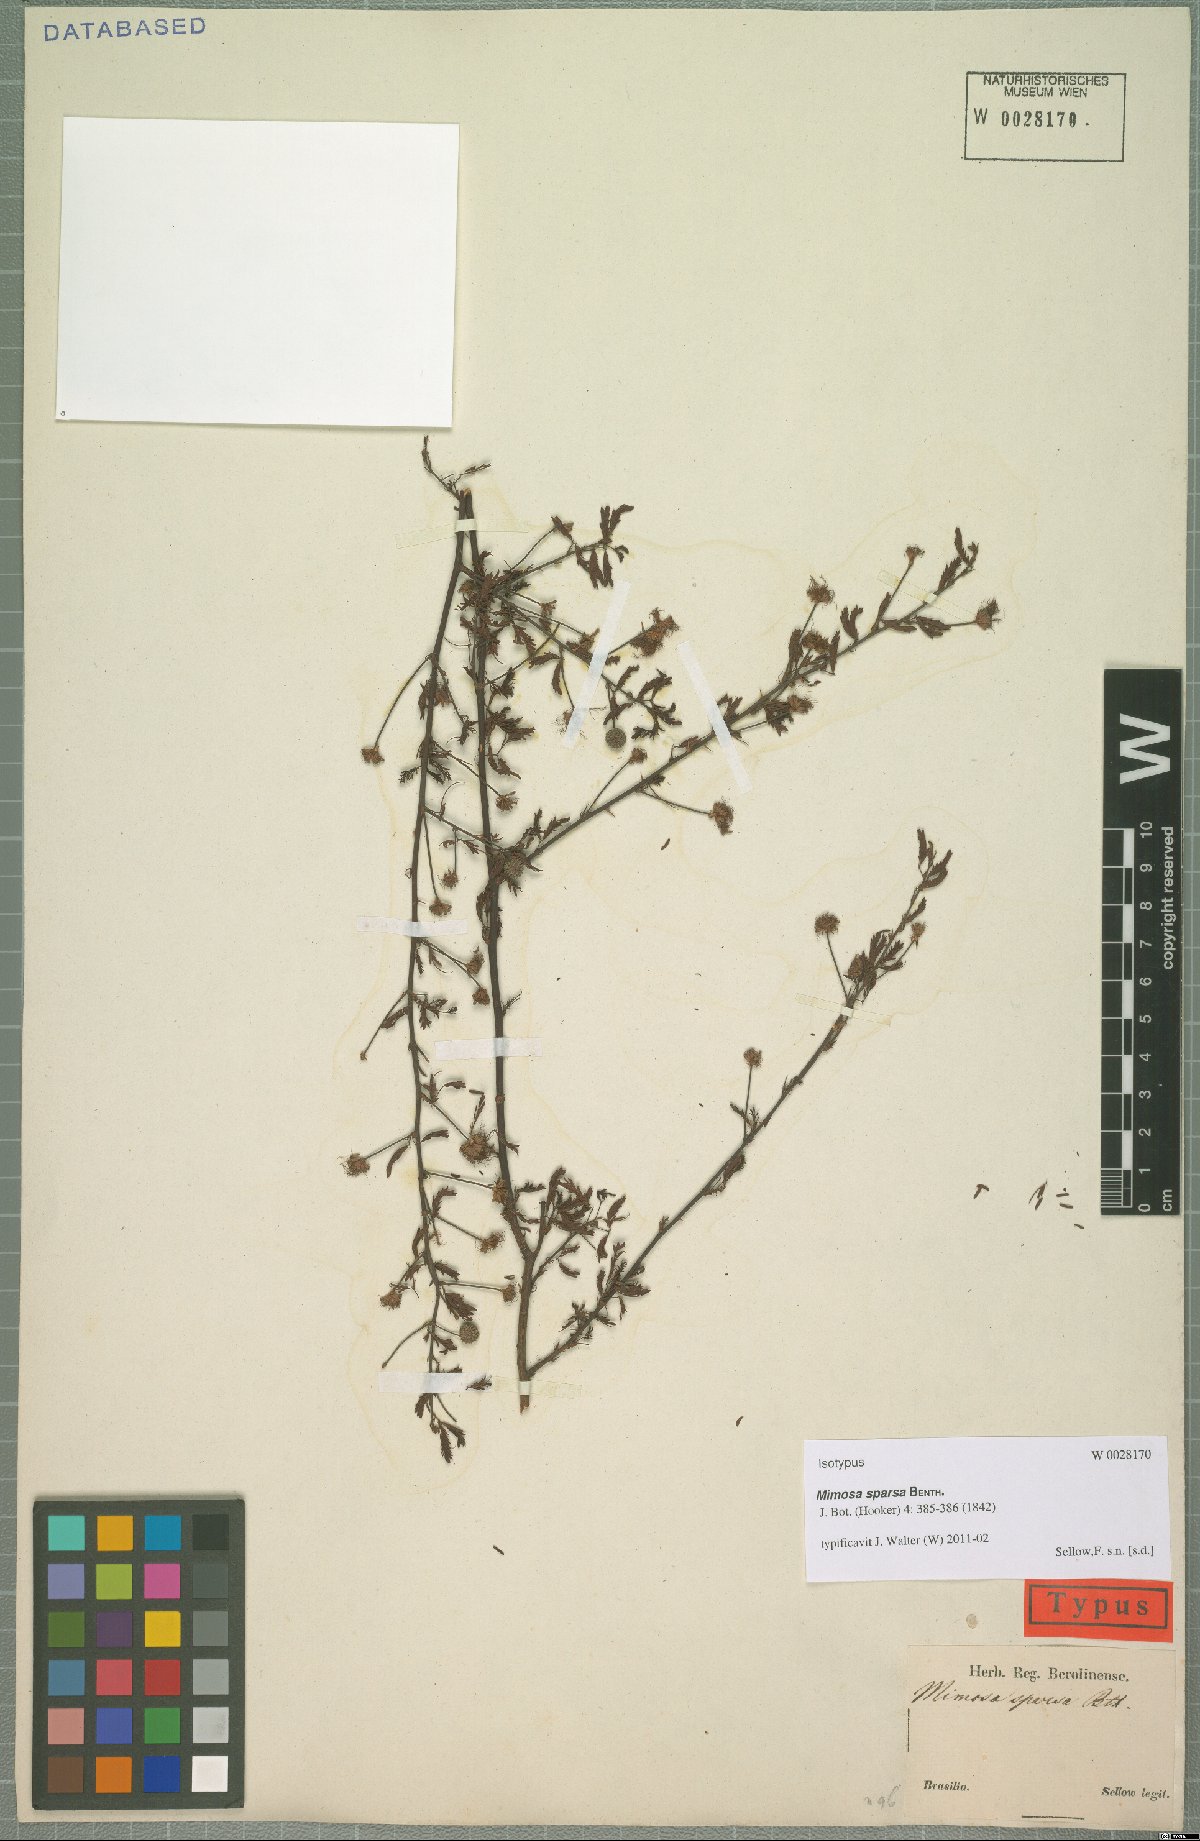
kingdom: Plantae
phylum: Tracheophyta
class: Magnoliopsida
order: Fabales
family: Fabaceae
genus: Mimosa
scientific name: Mimosa sparsa
